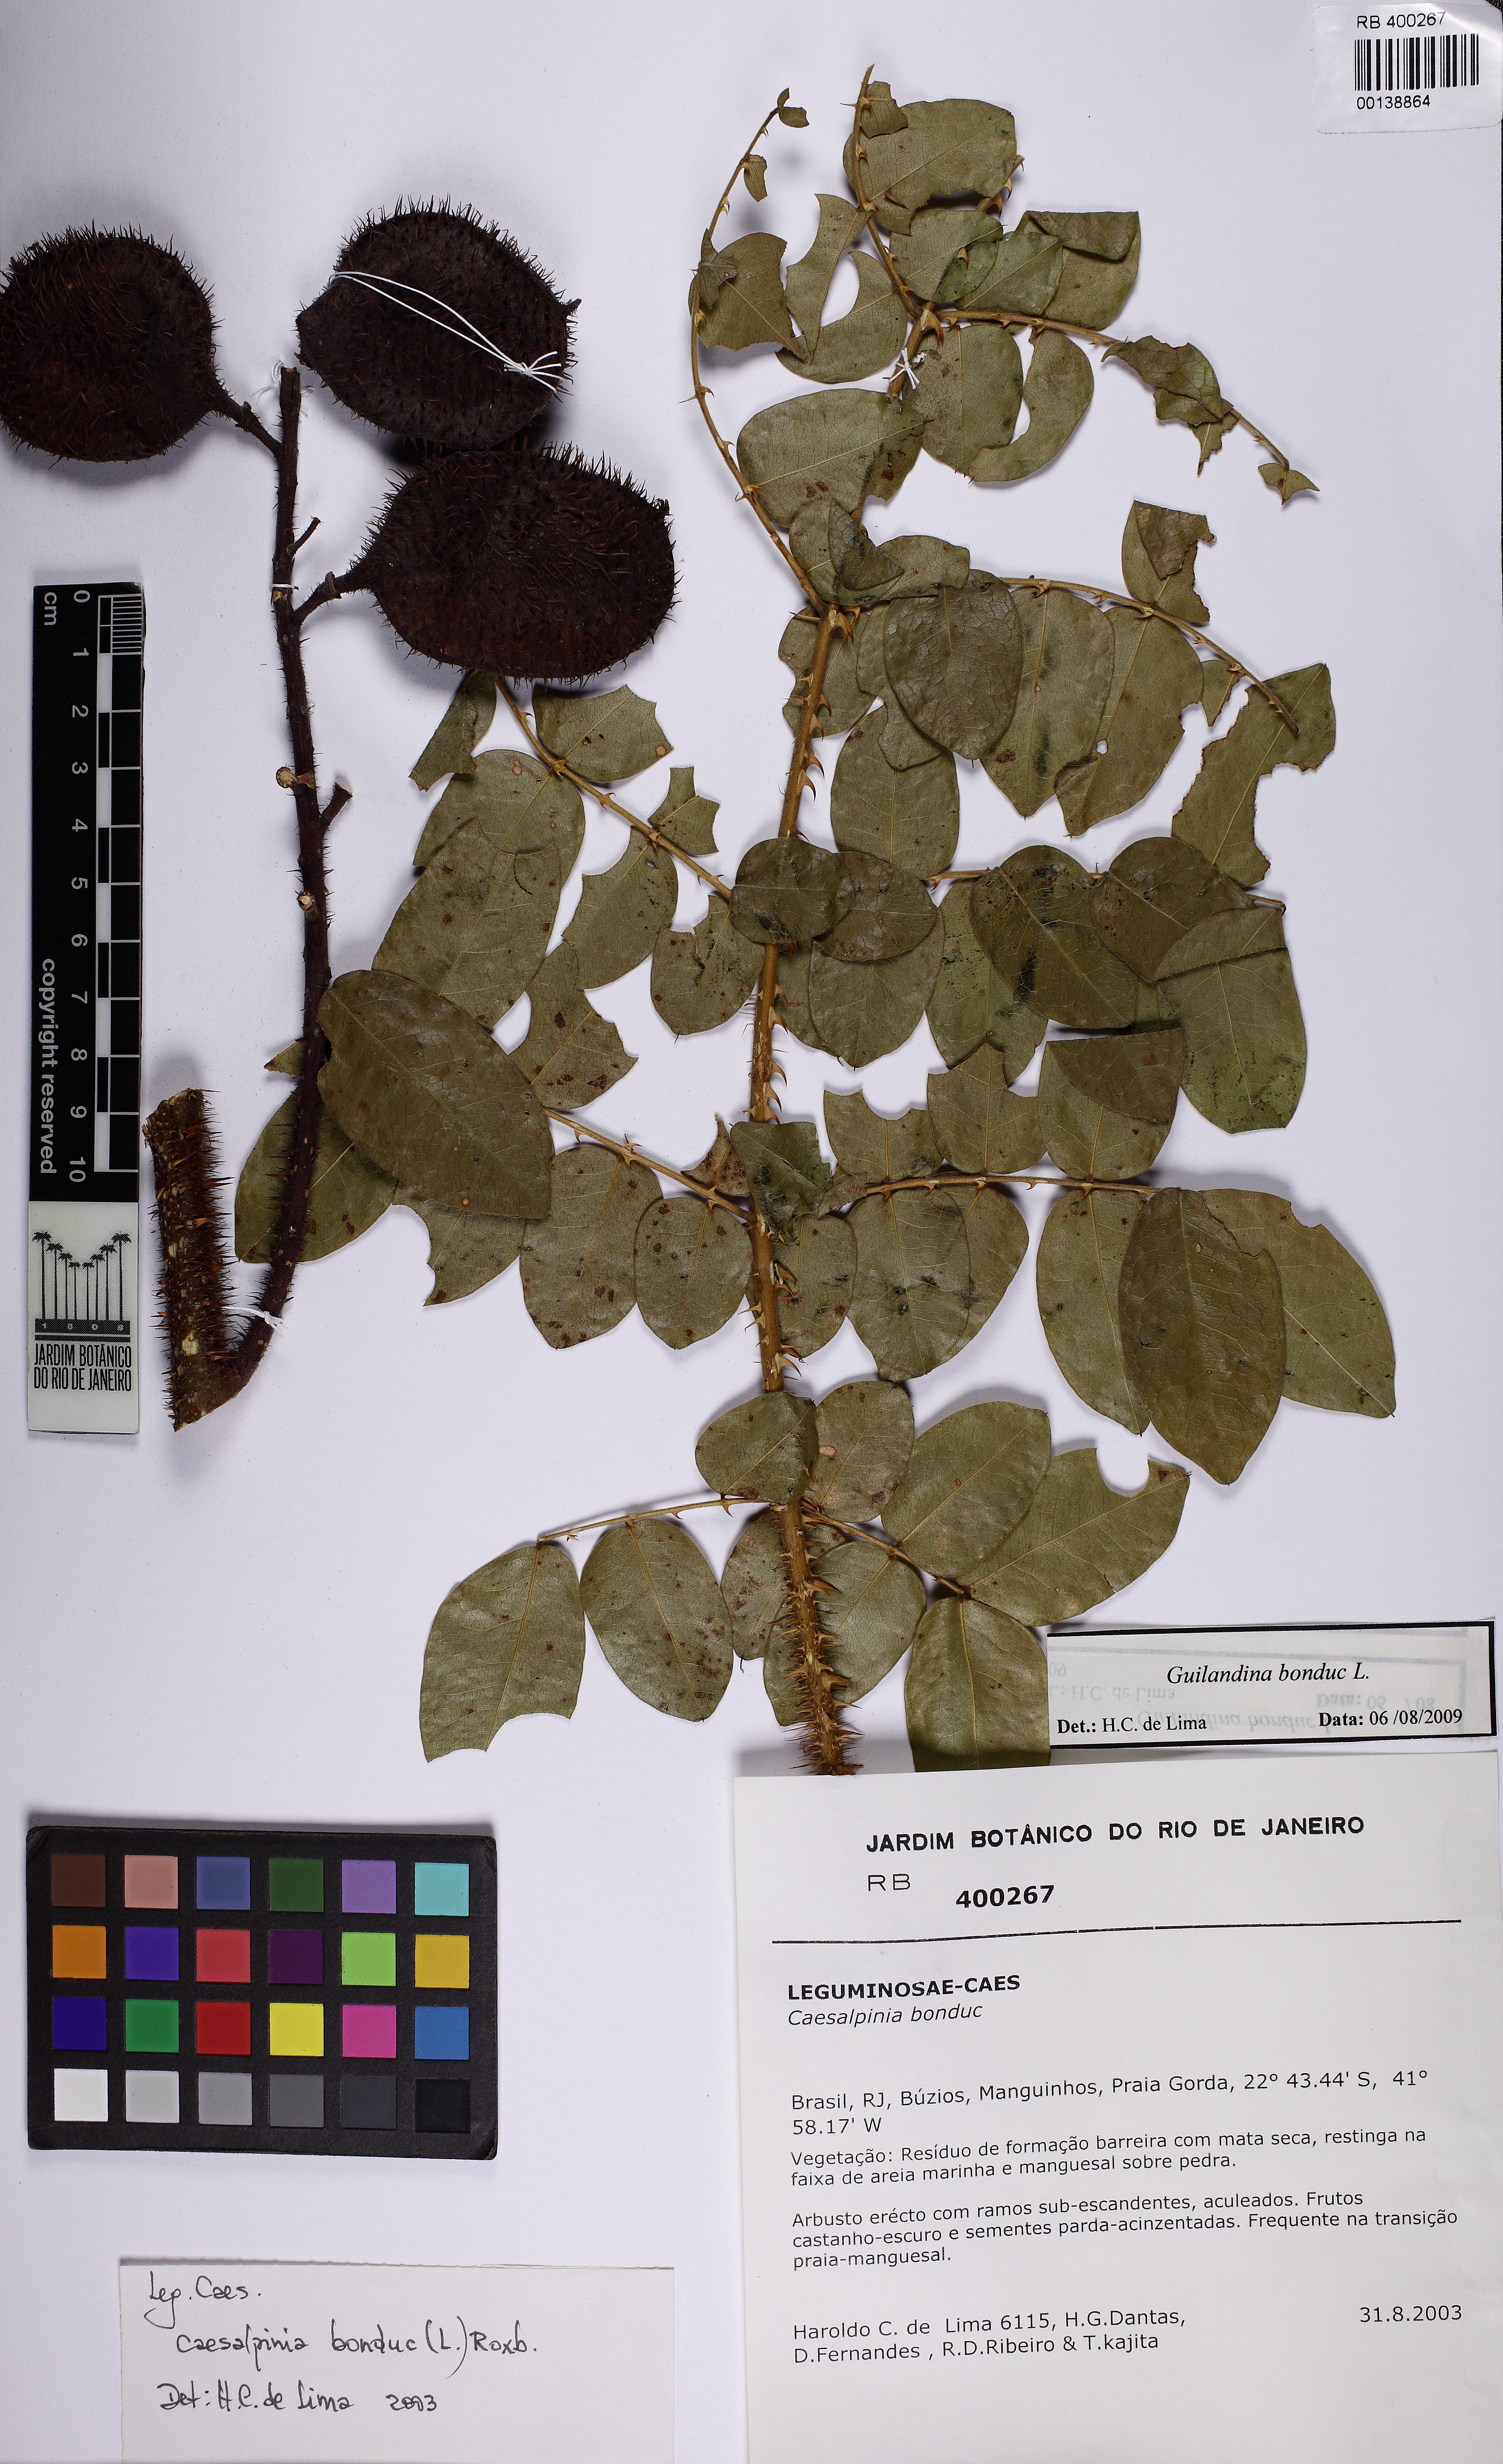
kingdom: Plantae
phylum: Tracheophyta
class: Magnoliopsida
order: Fabales
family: Fabaceae
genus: Guilandina
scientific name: Guilandina bonduc
